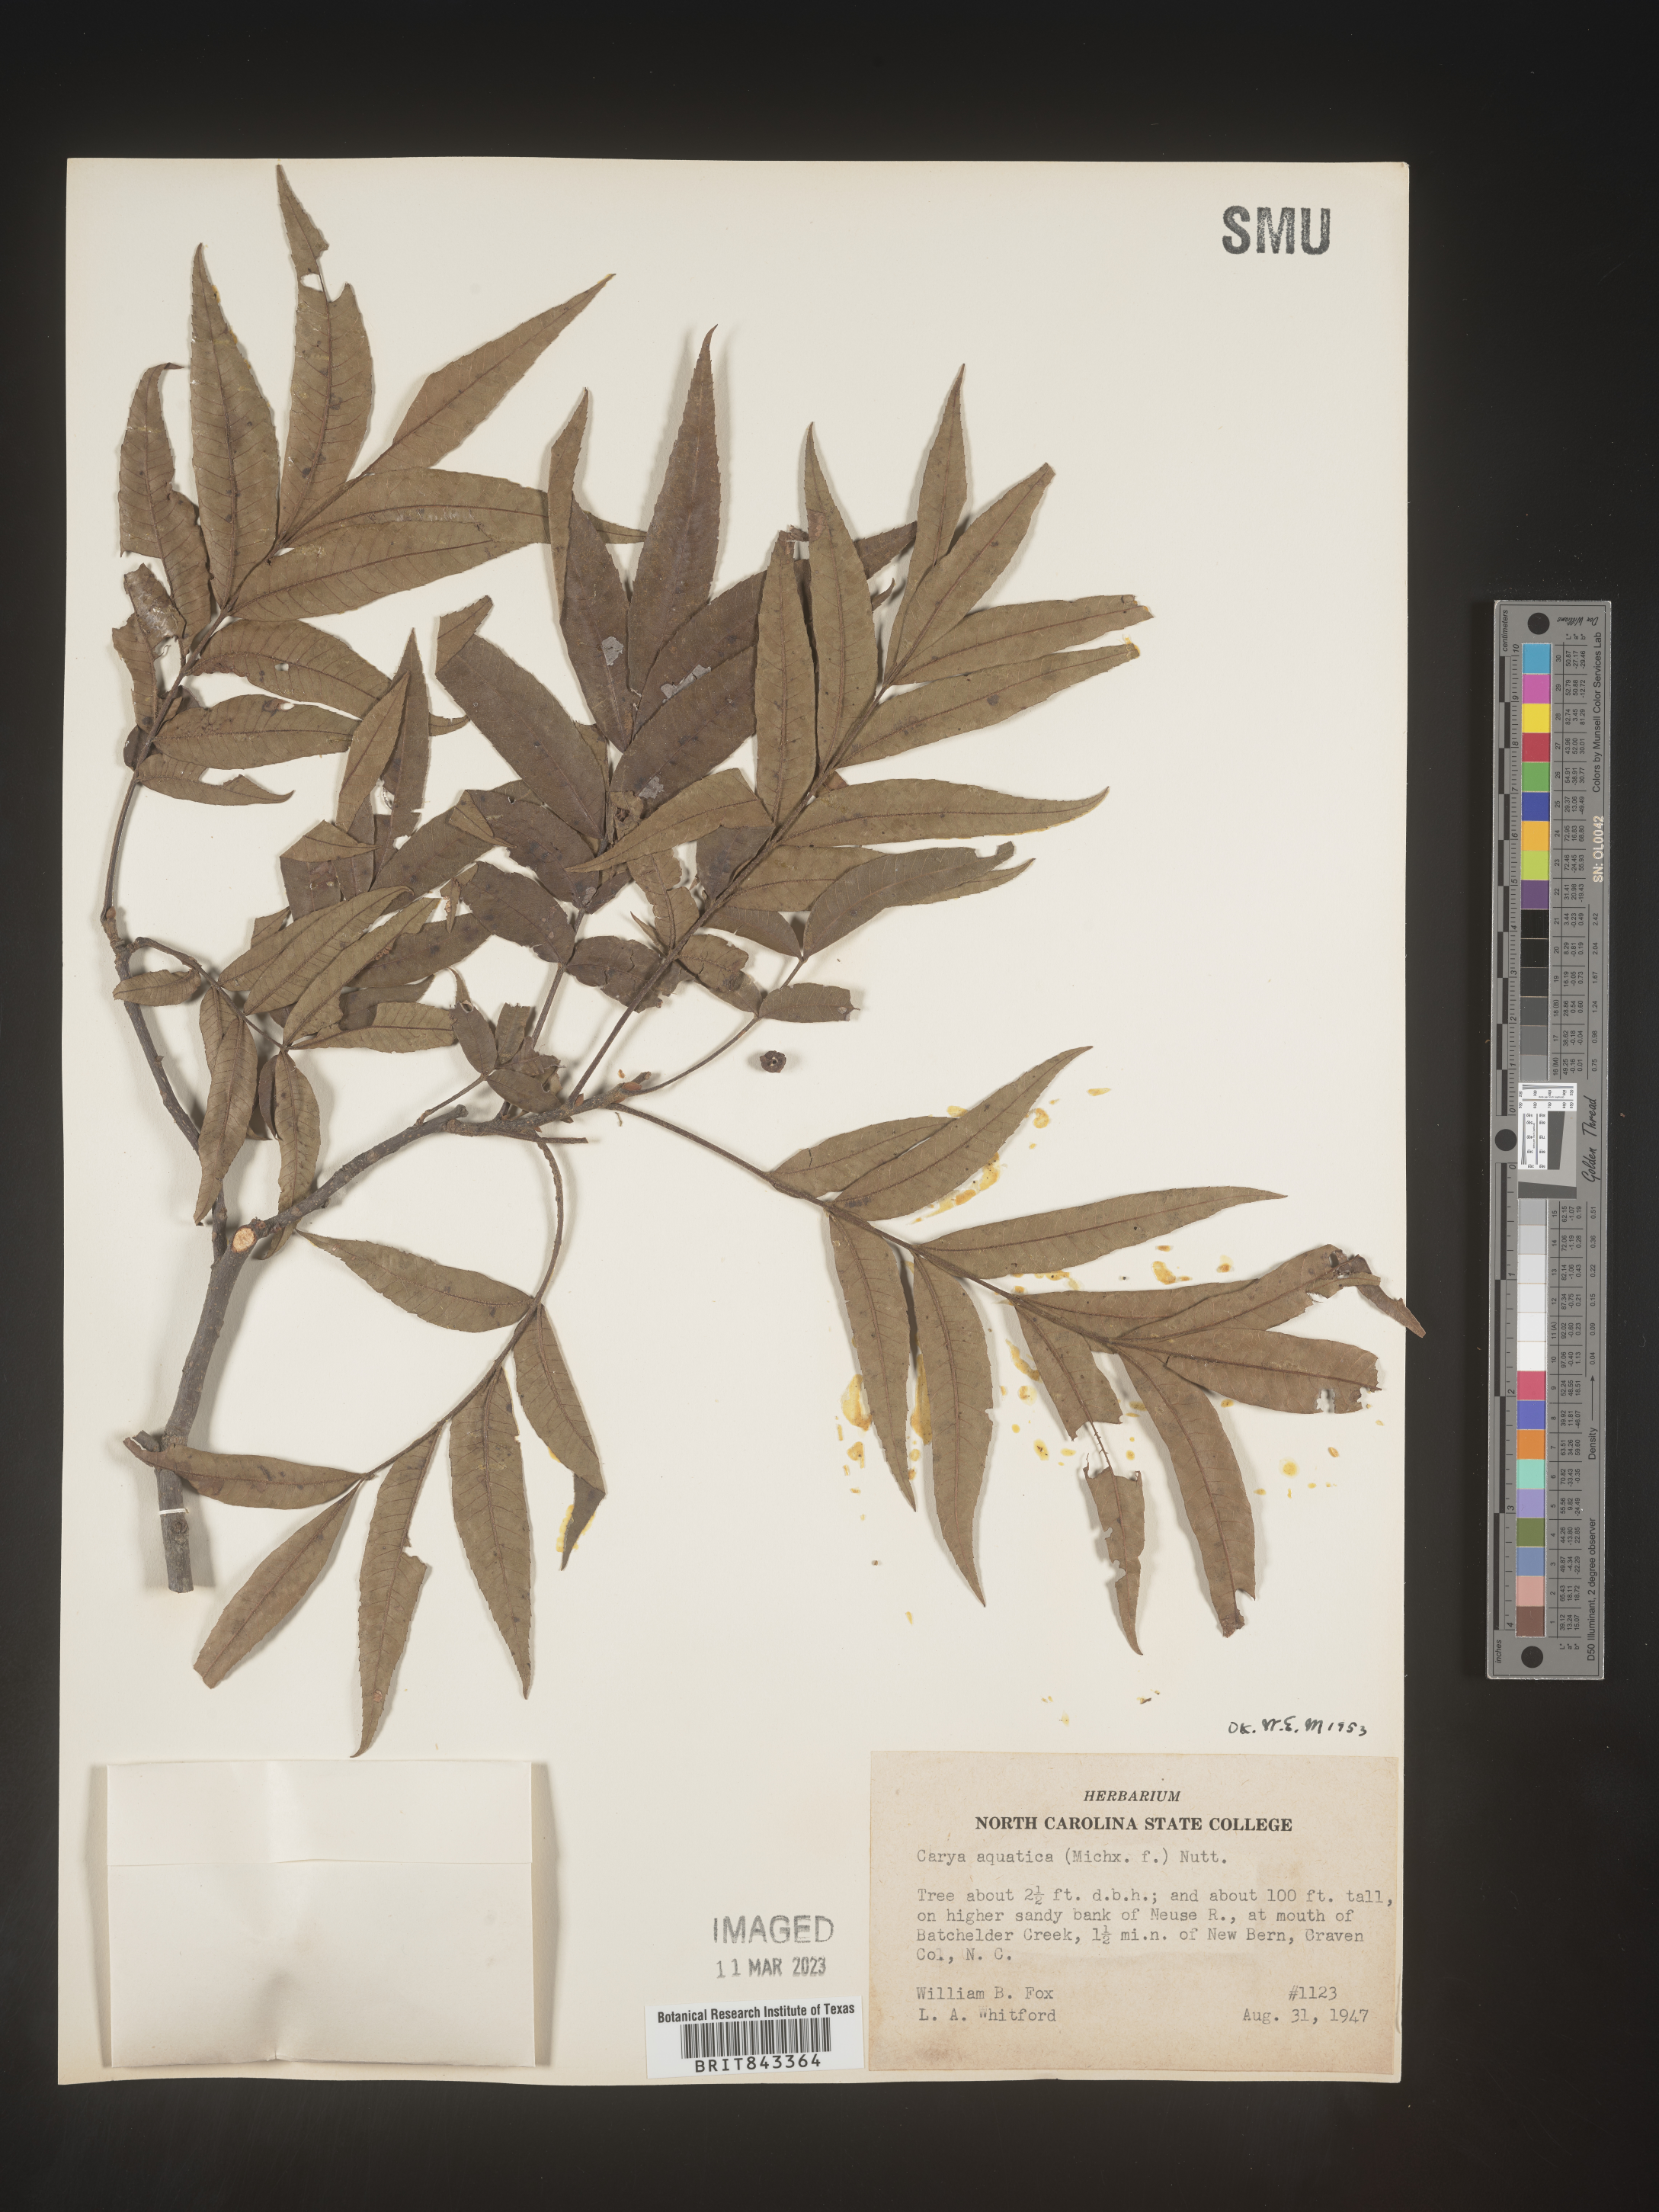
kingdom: Plantae
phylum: Tracheophyta
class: Magnoliopsida
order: Fagales
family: Juglandaceae
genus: Carya
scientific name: Carya aquatica
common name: Water hickory
